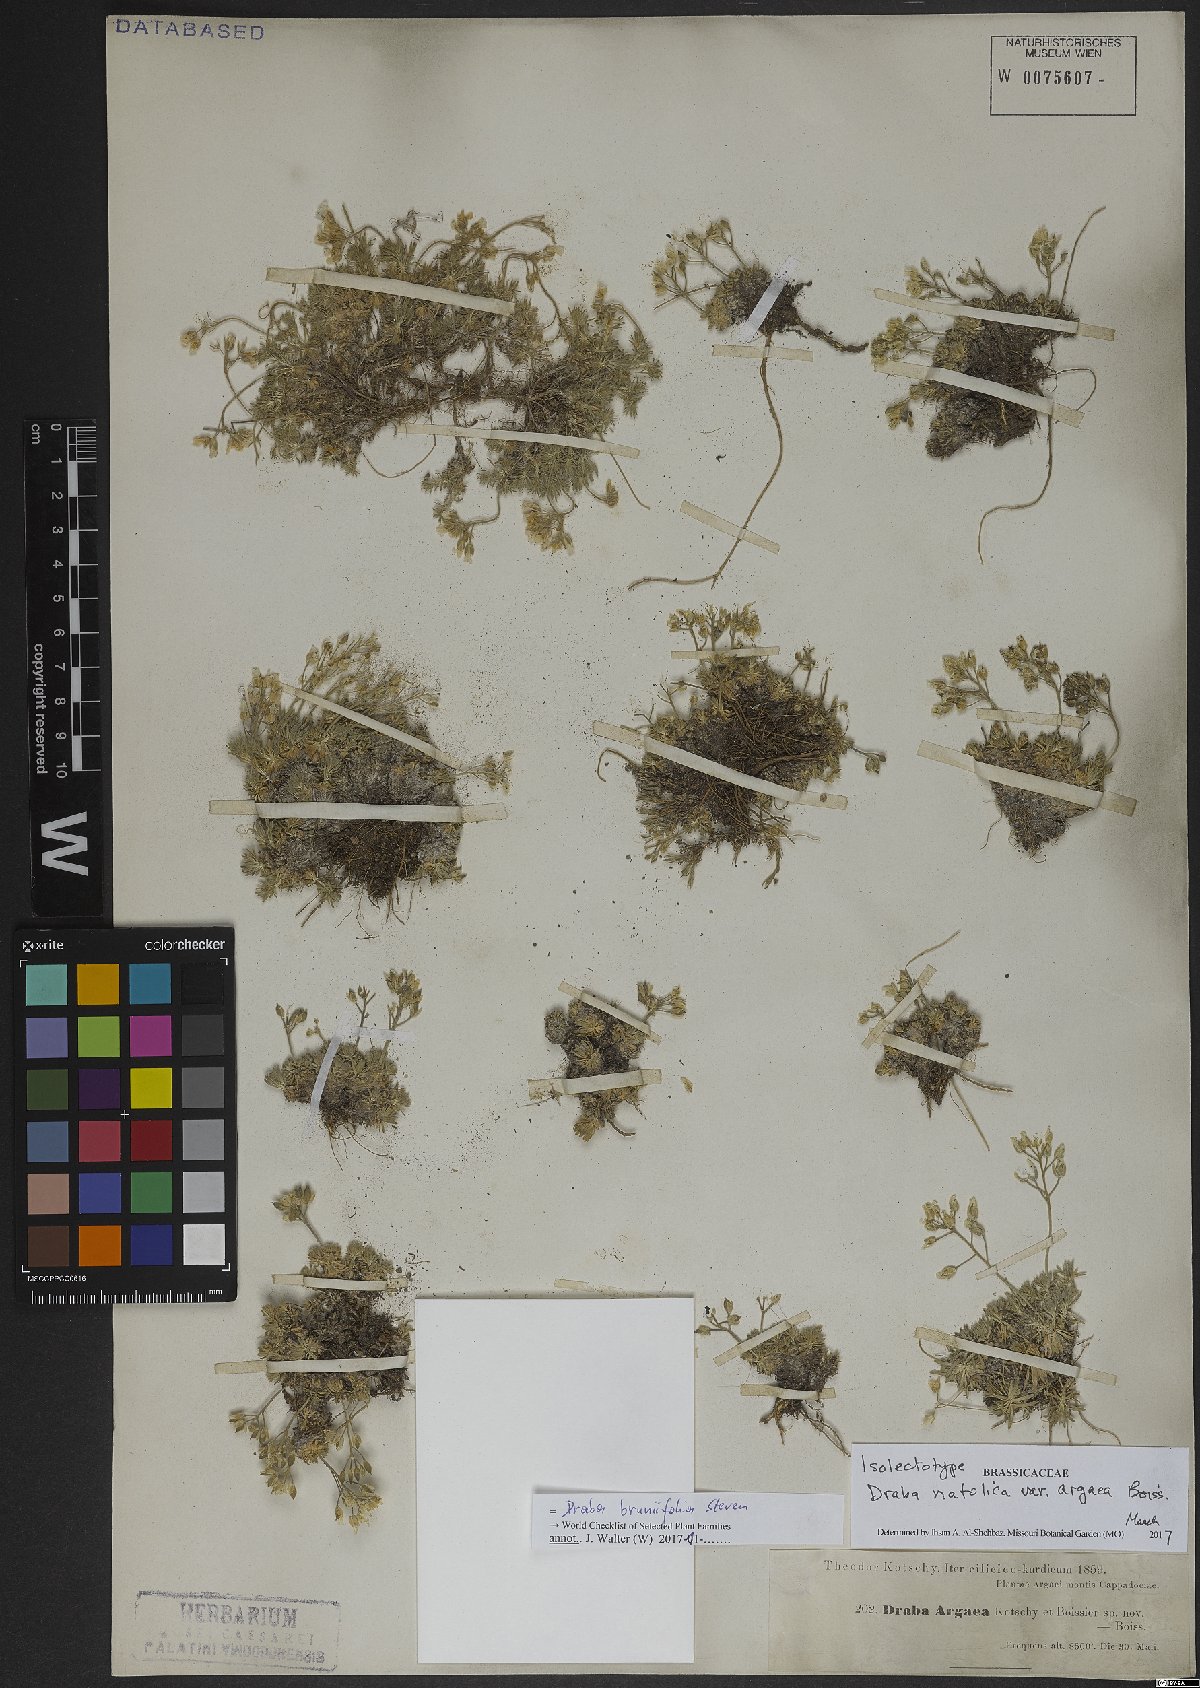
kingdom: Plantae
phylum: Tracheophyta
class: Magnoliopsida
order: Brassicales
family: Brassicaceae
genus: Draba
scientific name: Draba bruniifolia
